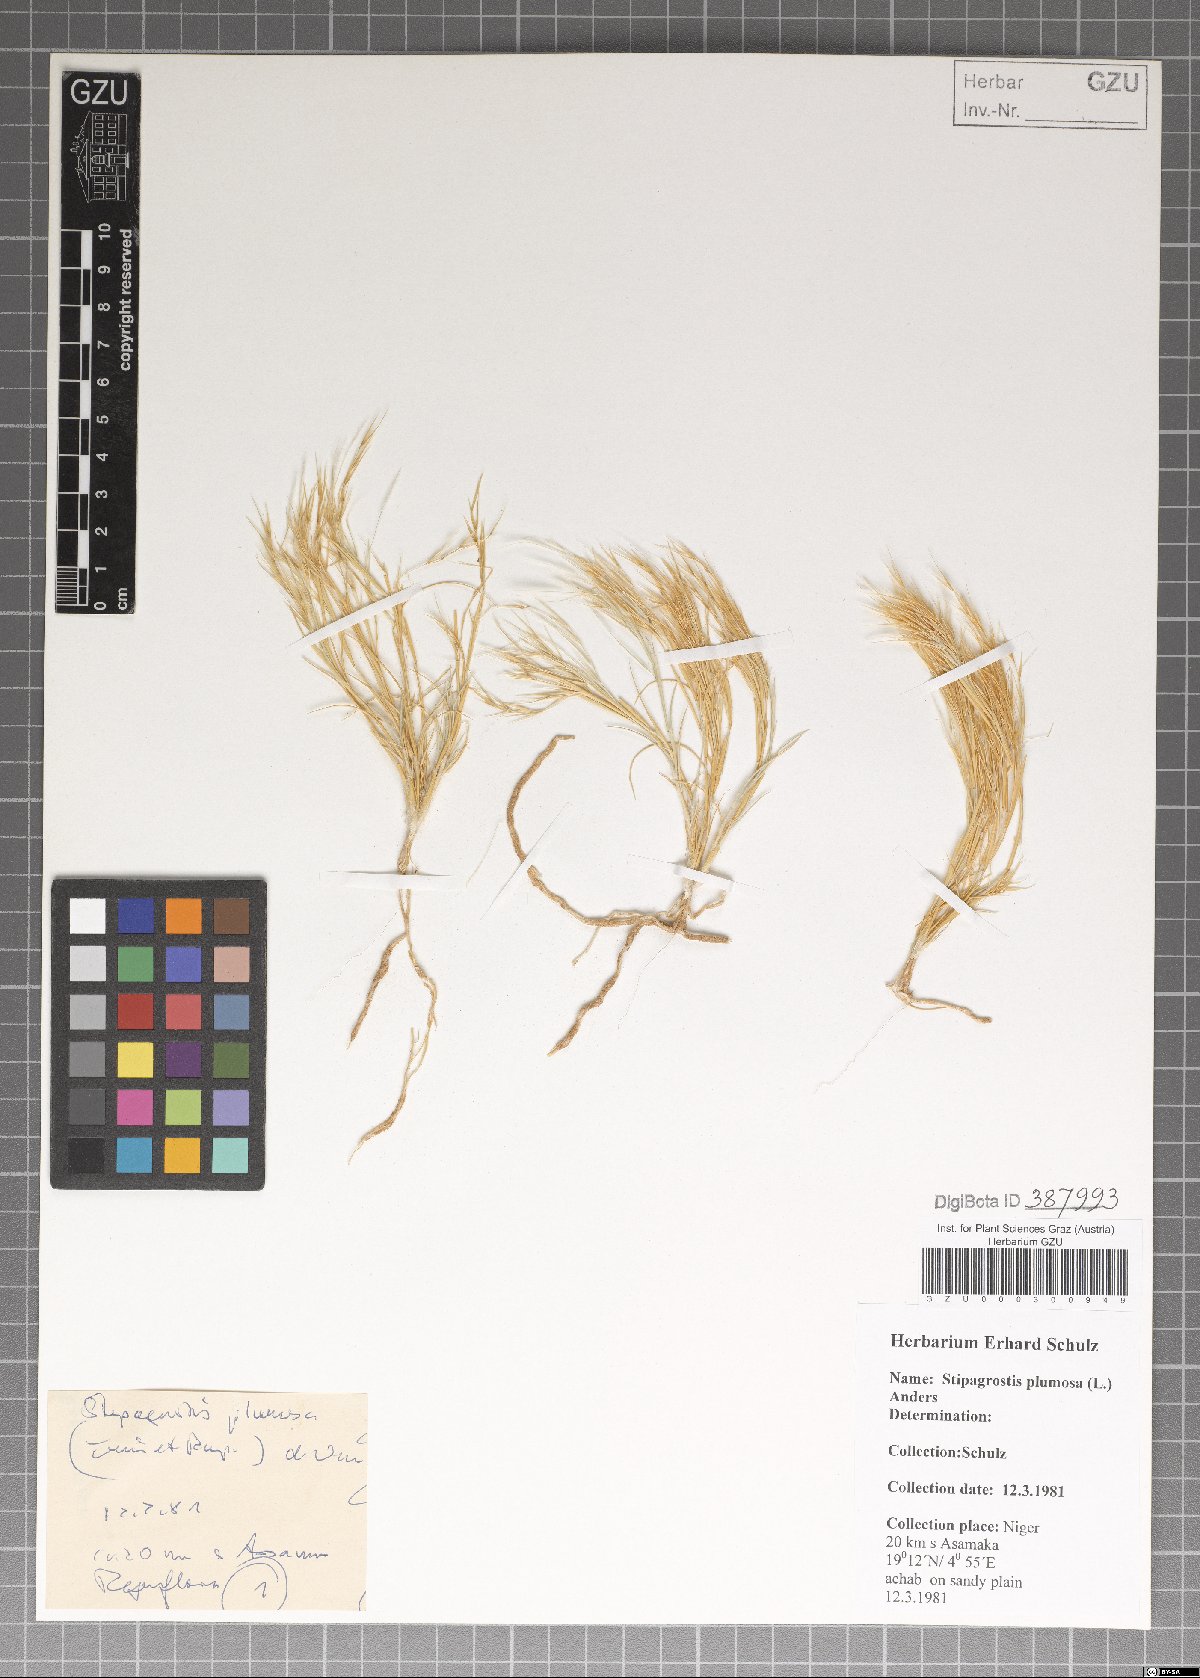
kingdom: Plantae
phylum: Tracheophyta
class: Liliopsida
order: Poales
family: Poaceae
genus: Stipagrostis
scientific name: Stipagrostis plumosa
